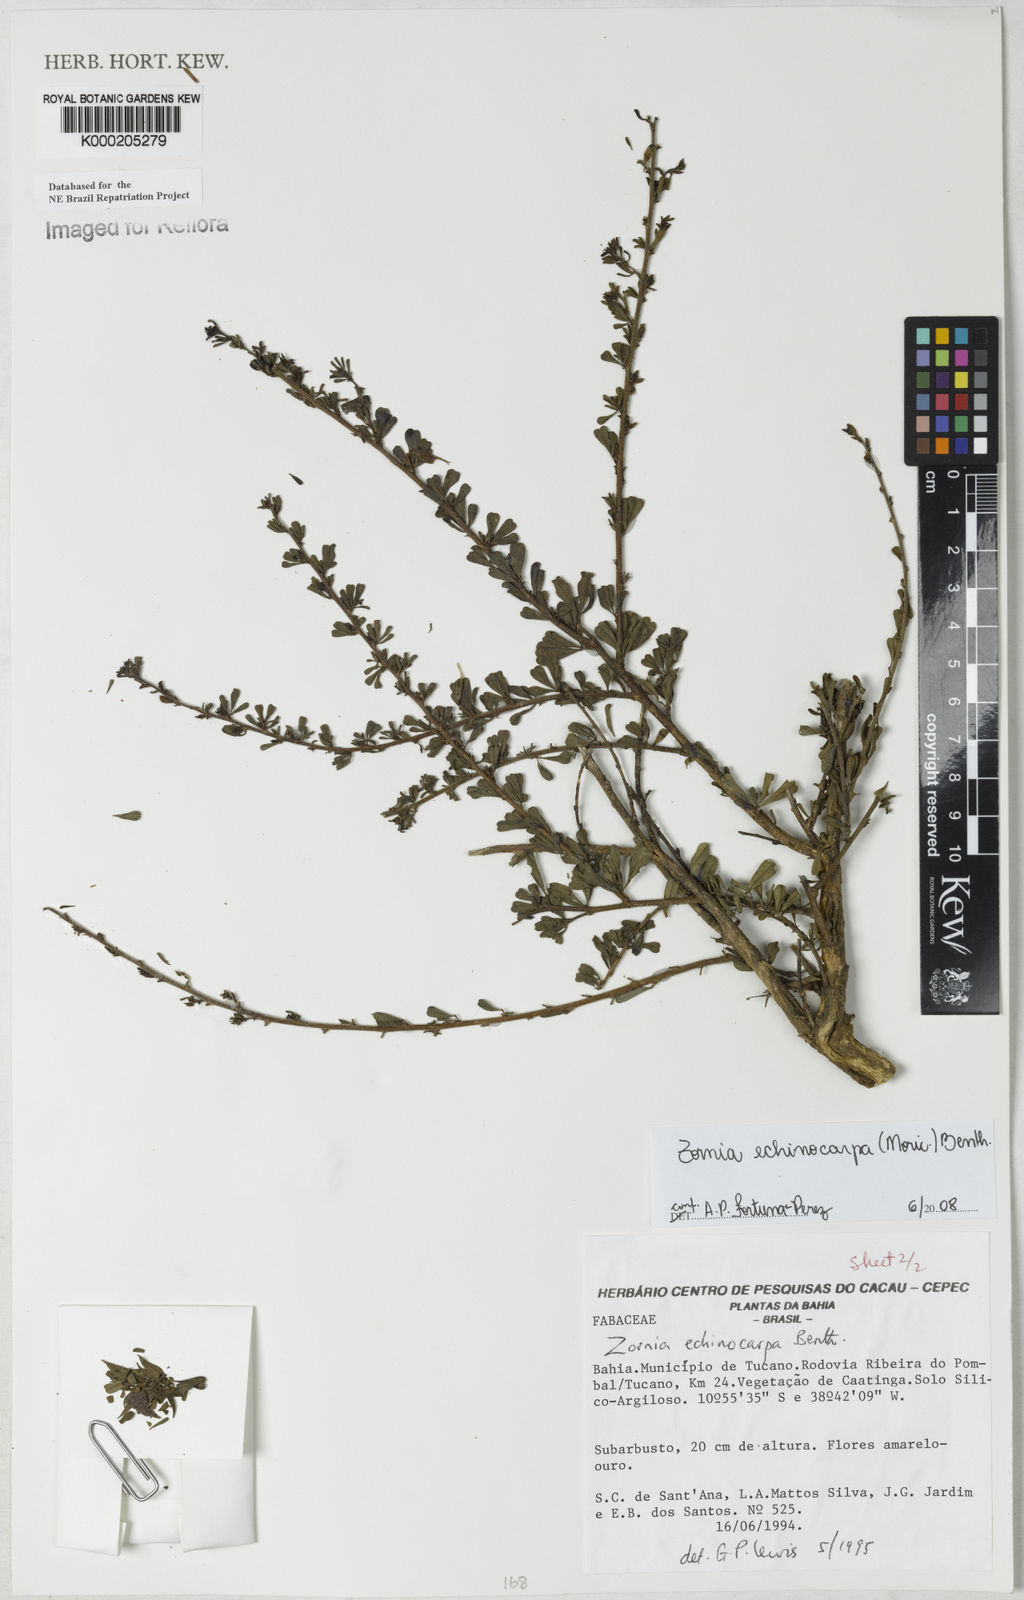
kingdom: Plantae
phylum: Tracheophyta
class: Magnoliopsida
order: Fabales
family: Fabaceae
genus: Zornia
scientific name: Zornia echinocarpa
